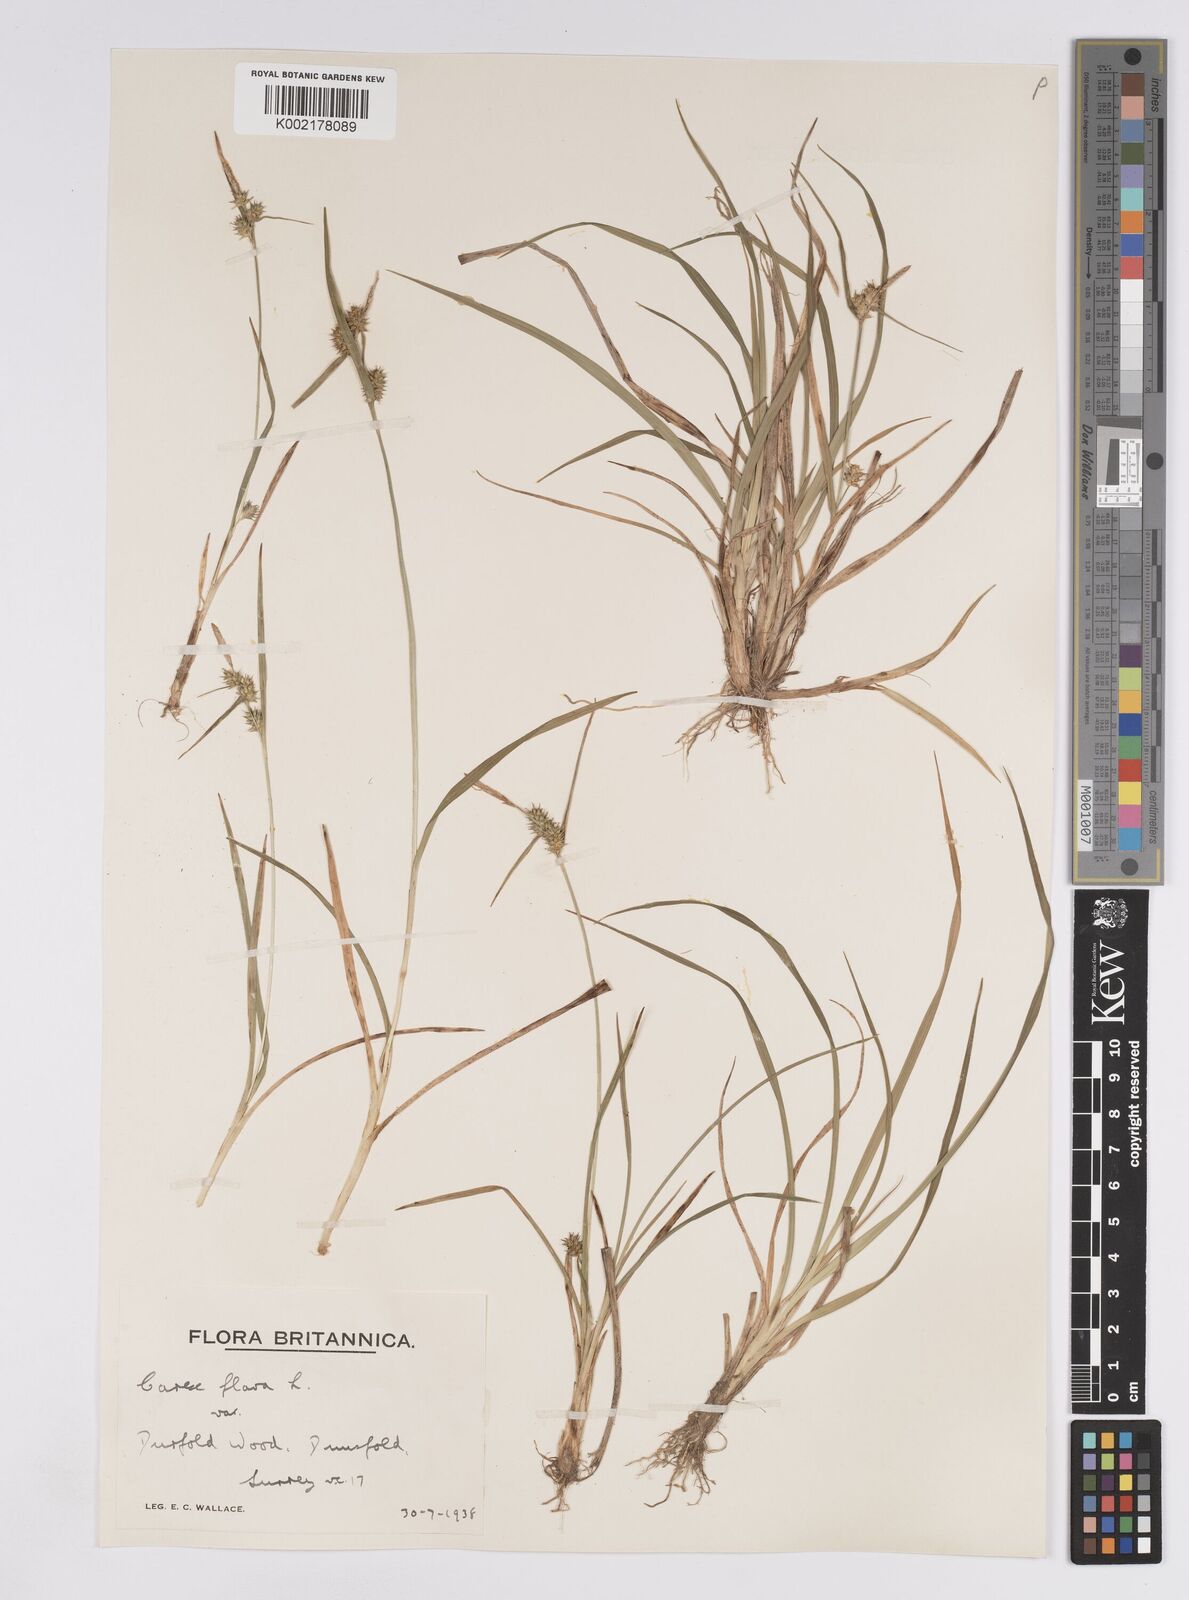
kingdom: Plantae
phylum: Tracheophyta
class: Liliopsida
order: Poales
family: Cyperaceae
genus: Carex
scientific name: Carex demissa
